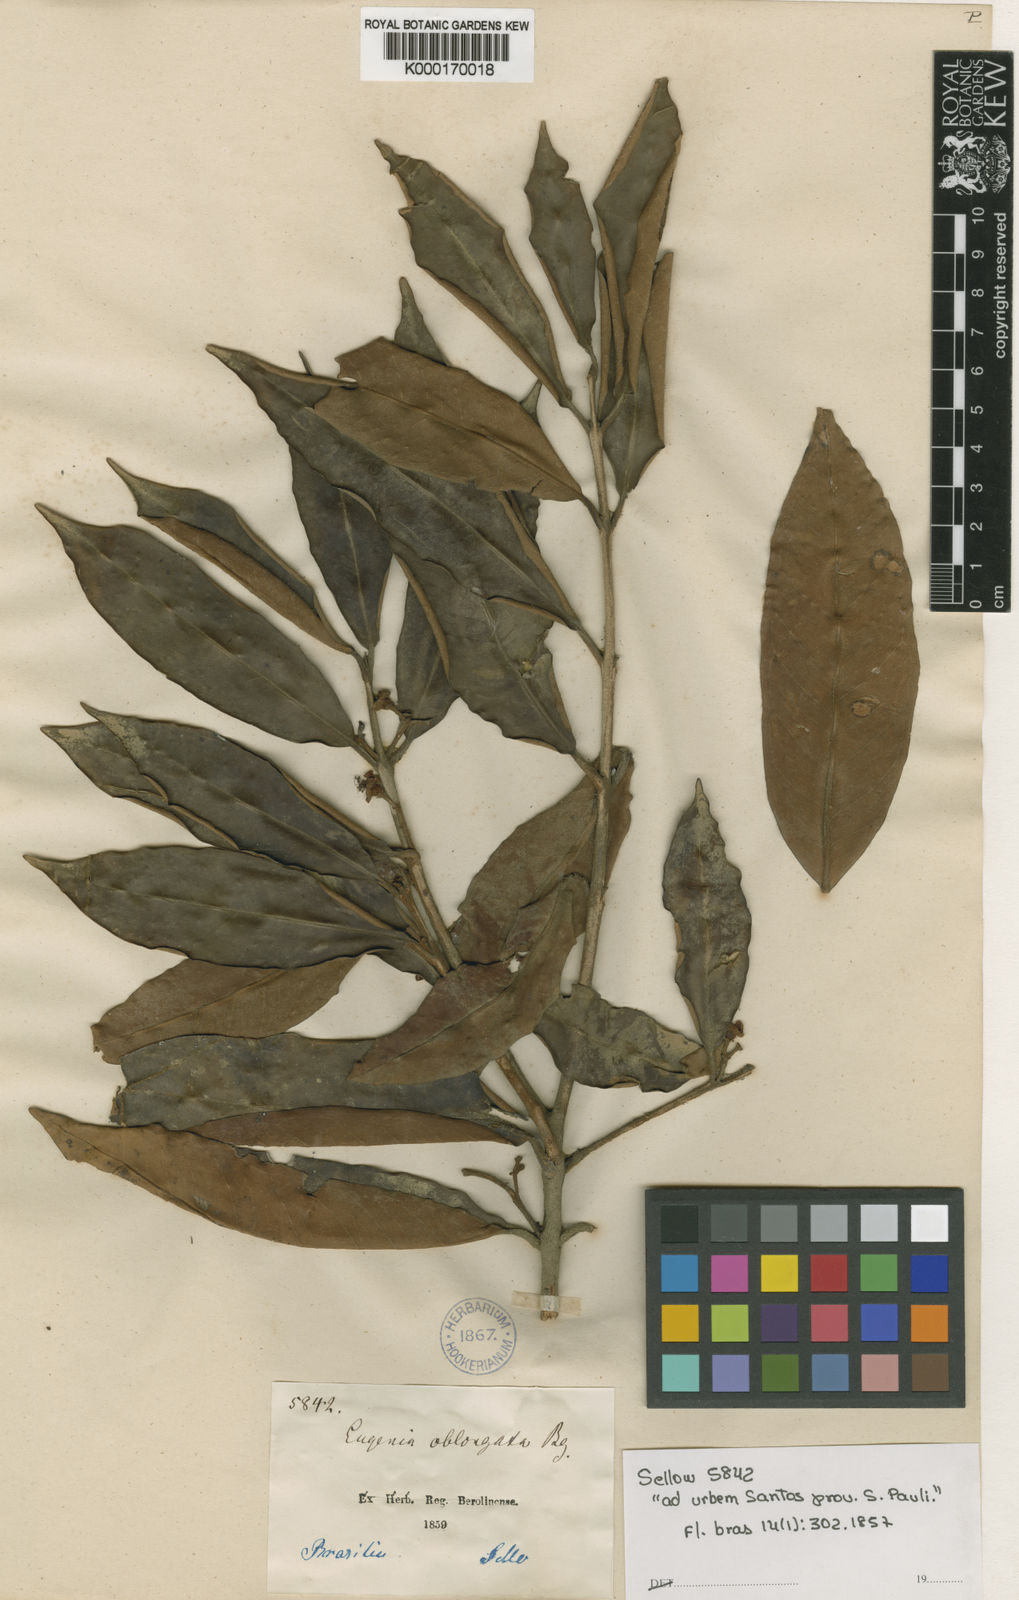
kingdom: Plantae
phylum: Tracheophyta
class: Magnoliopsida
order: Myrtales
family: Myrtaceae
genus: Eugenia
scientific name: Eugenia oblongata
